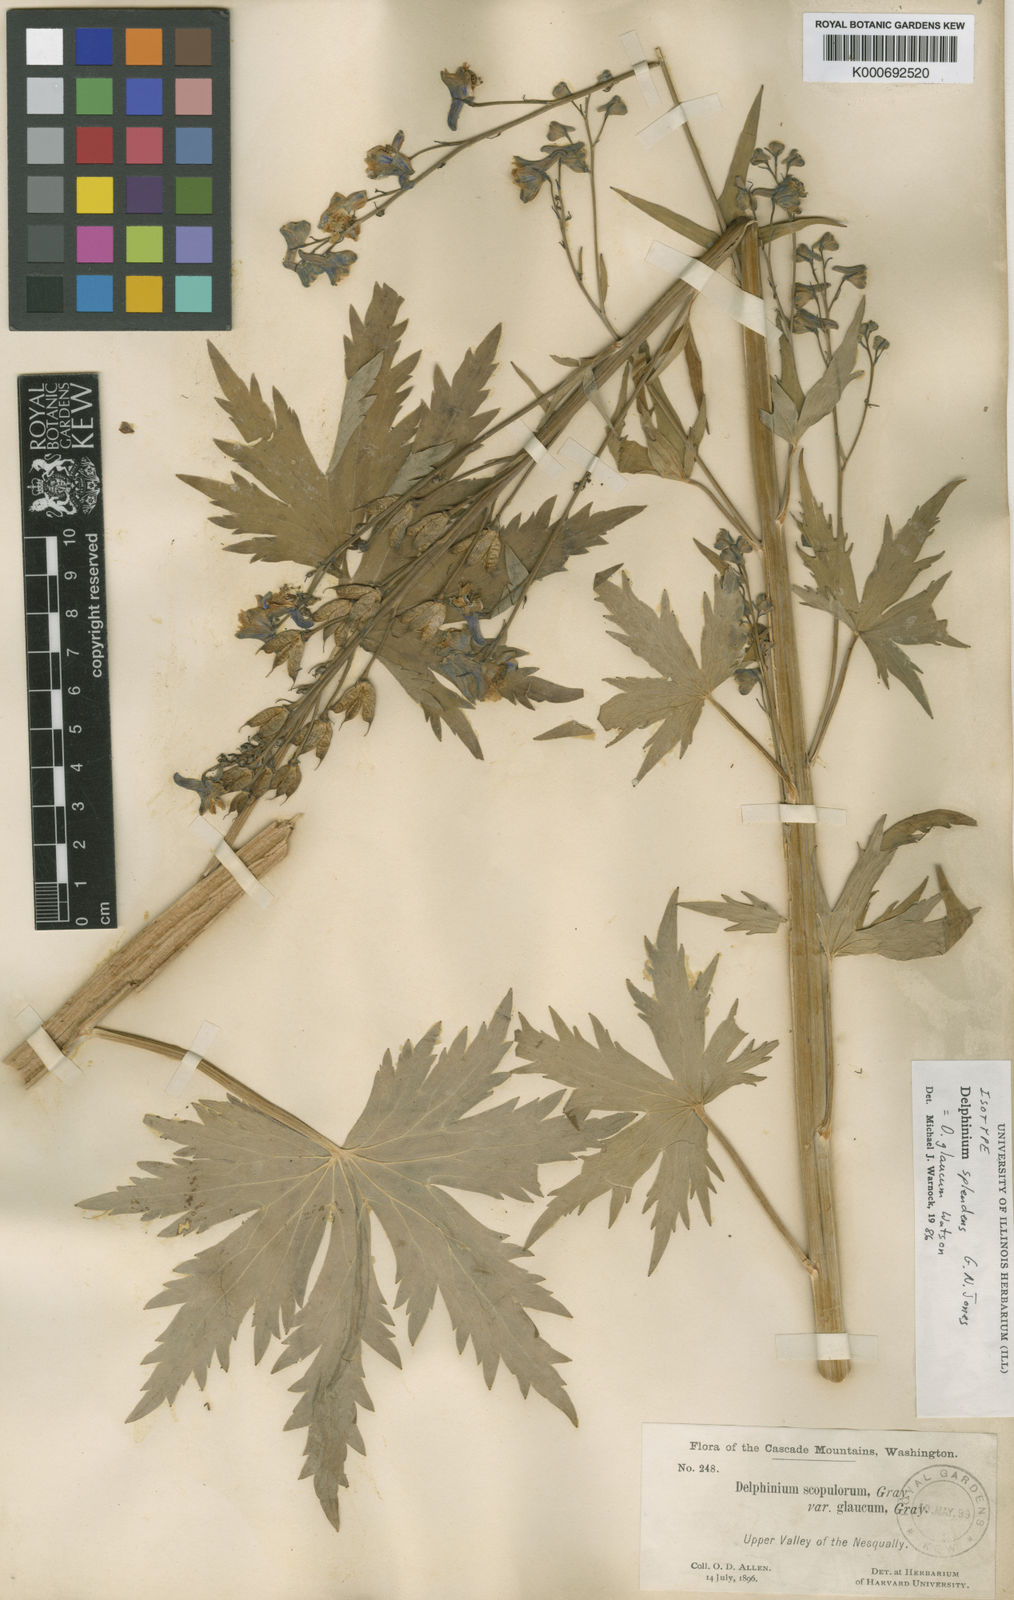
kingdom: Plantae
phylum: Tracheophyta
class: Magnoliopsida
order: Ranunculales
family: Ranunculaceae
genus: Delphinium
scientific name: Delphinium glaucum
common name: Brown's larkspur
